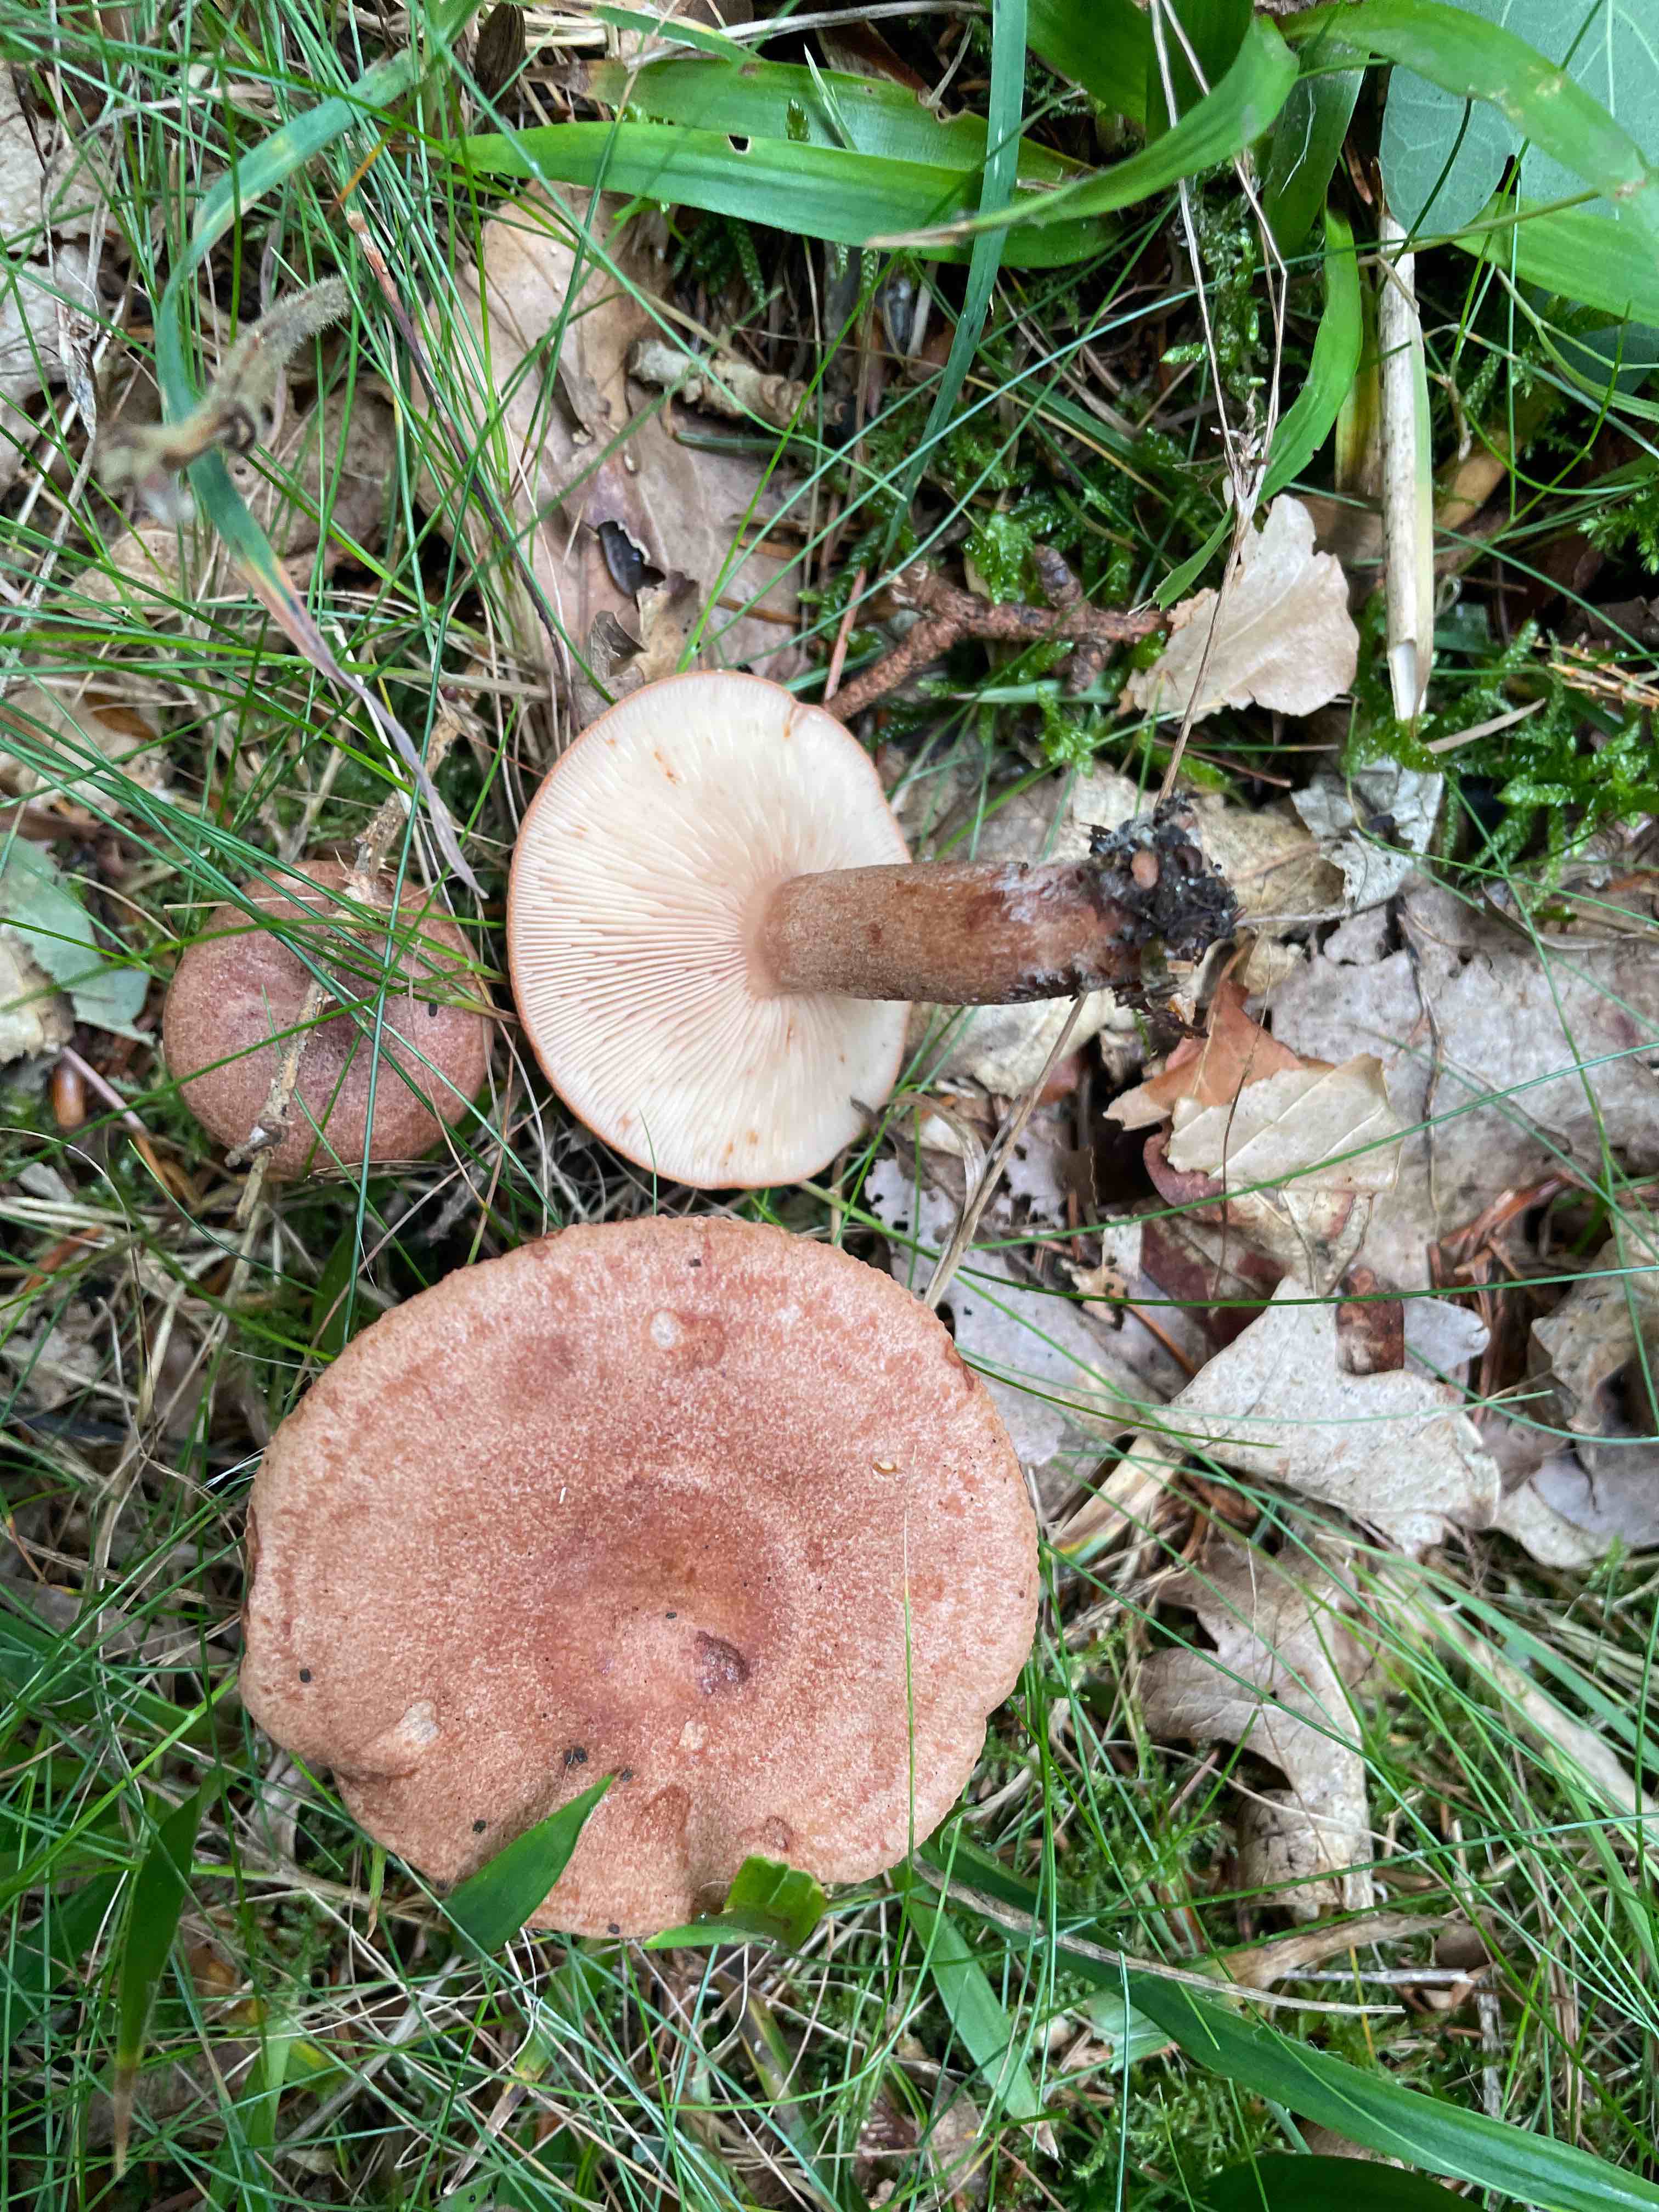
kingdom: Fungi
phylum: Basidiomycota
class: Agaricomycetes
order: Russulales
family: Russulaceae
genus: Lactarius
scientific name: Lactarius quietus
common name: ege-mælkehat
